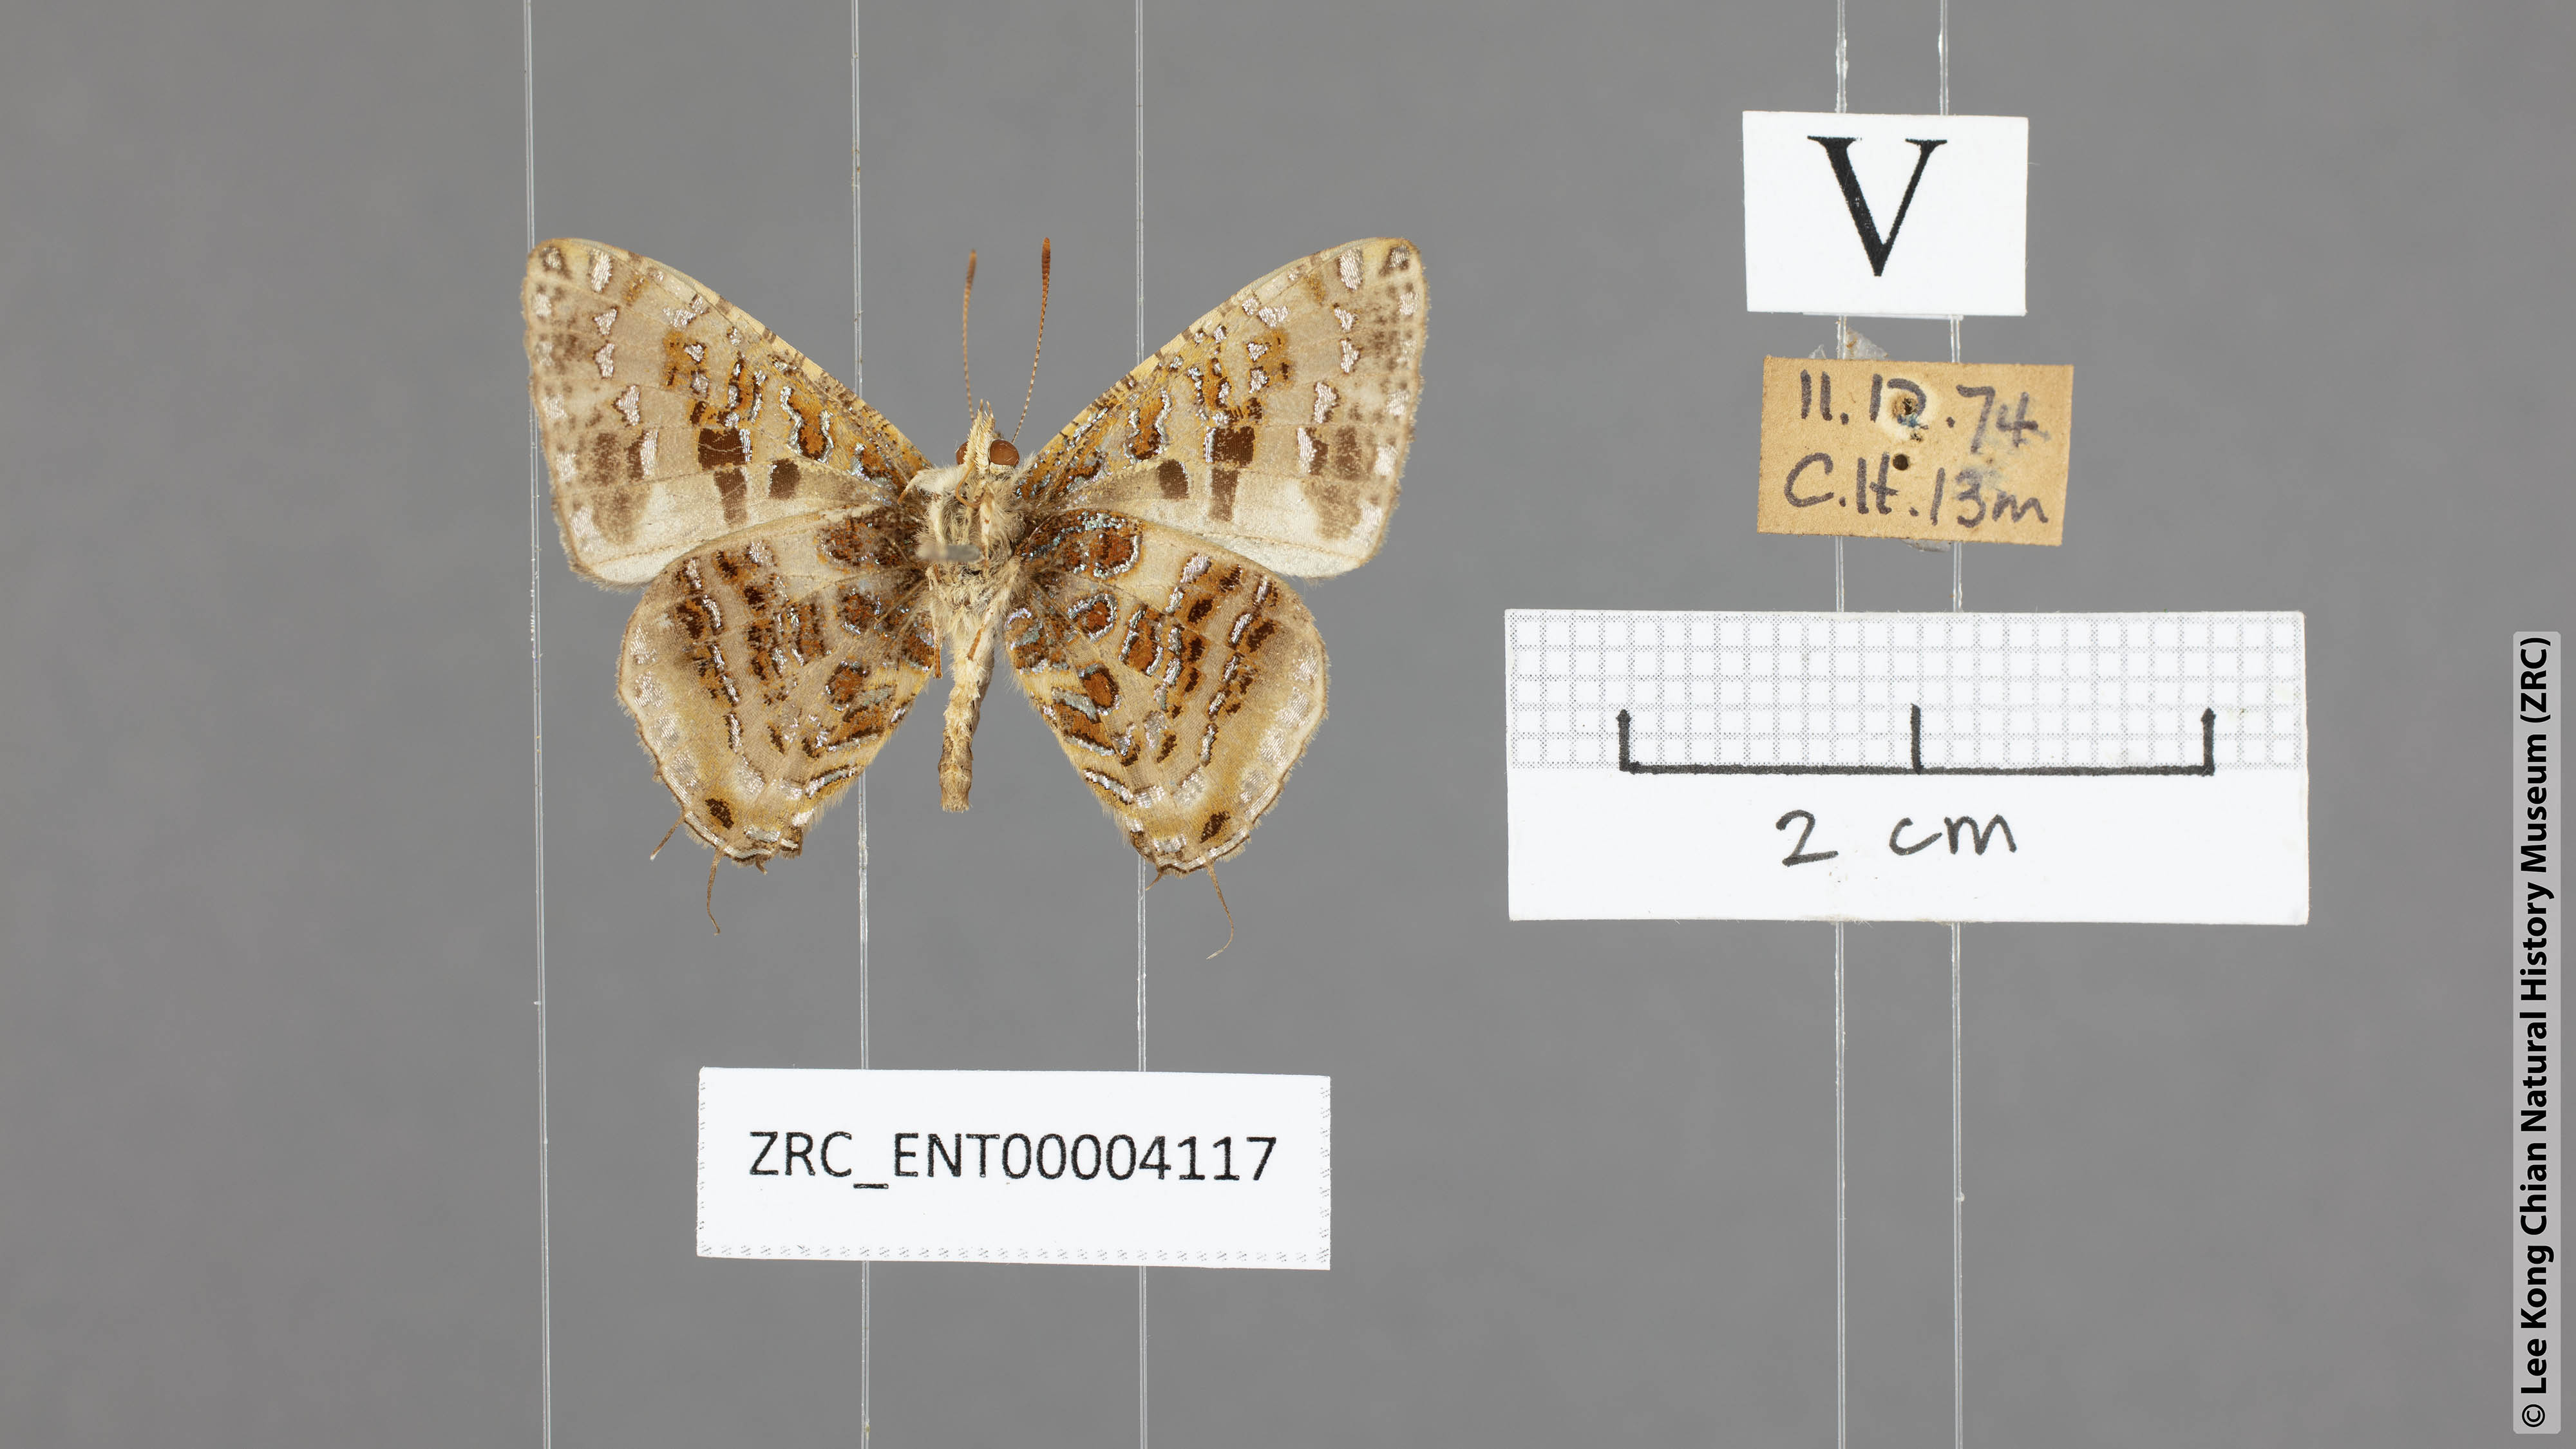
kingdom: Animalia
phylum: Arthropoda
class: Insecta
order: Lepidoptera
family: Lycaenidae
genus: Catapaecilma
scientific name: Catapaecilma major
